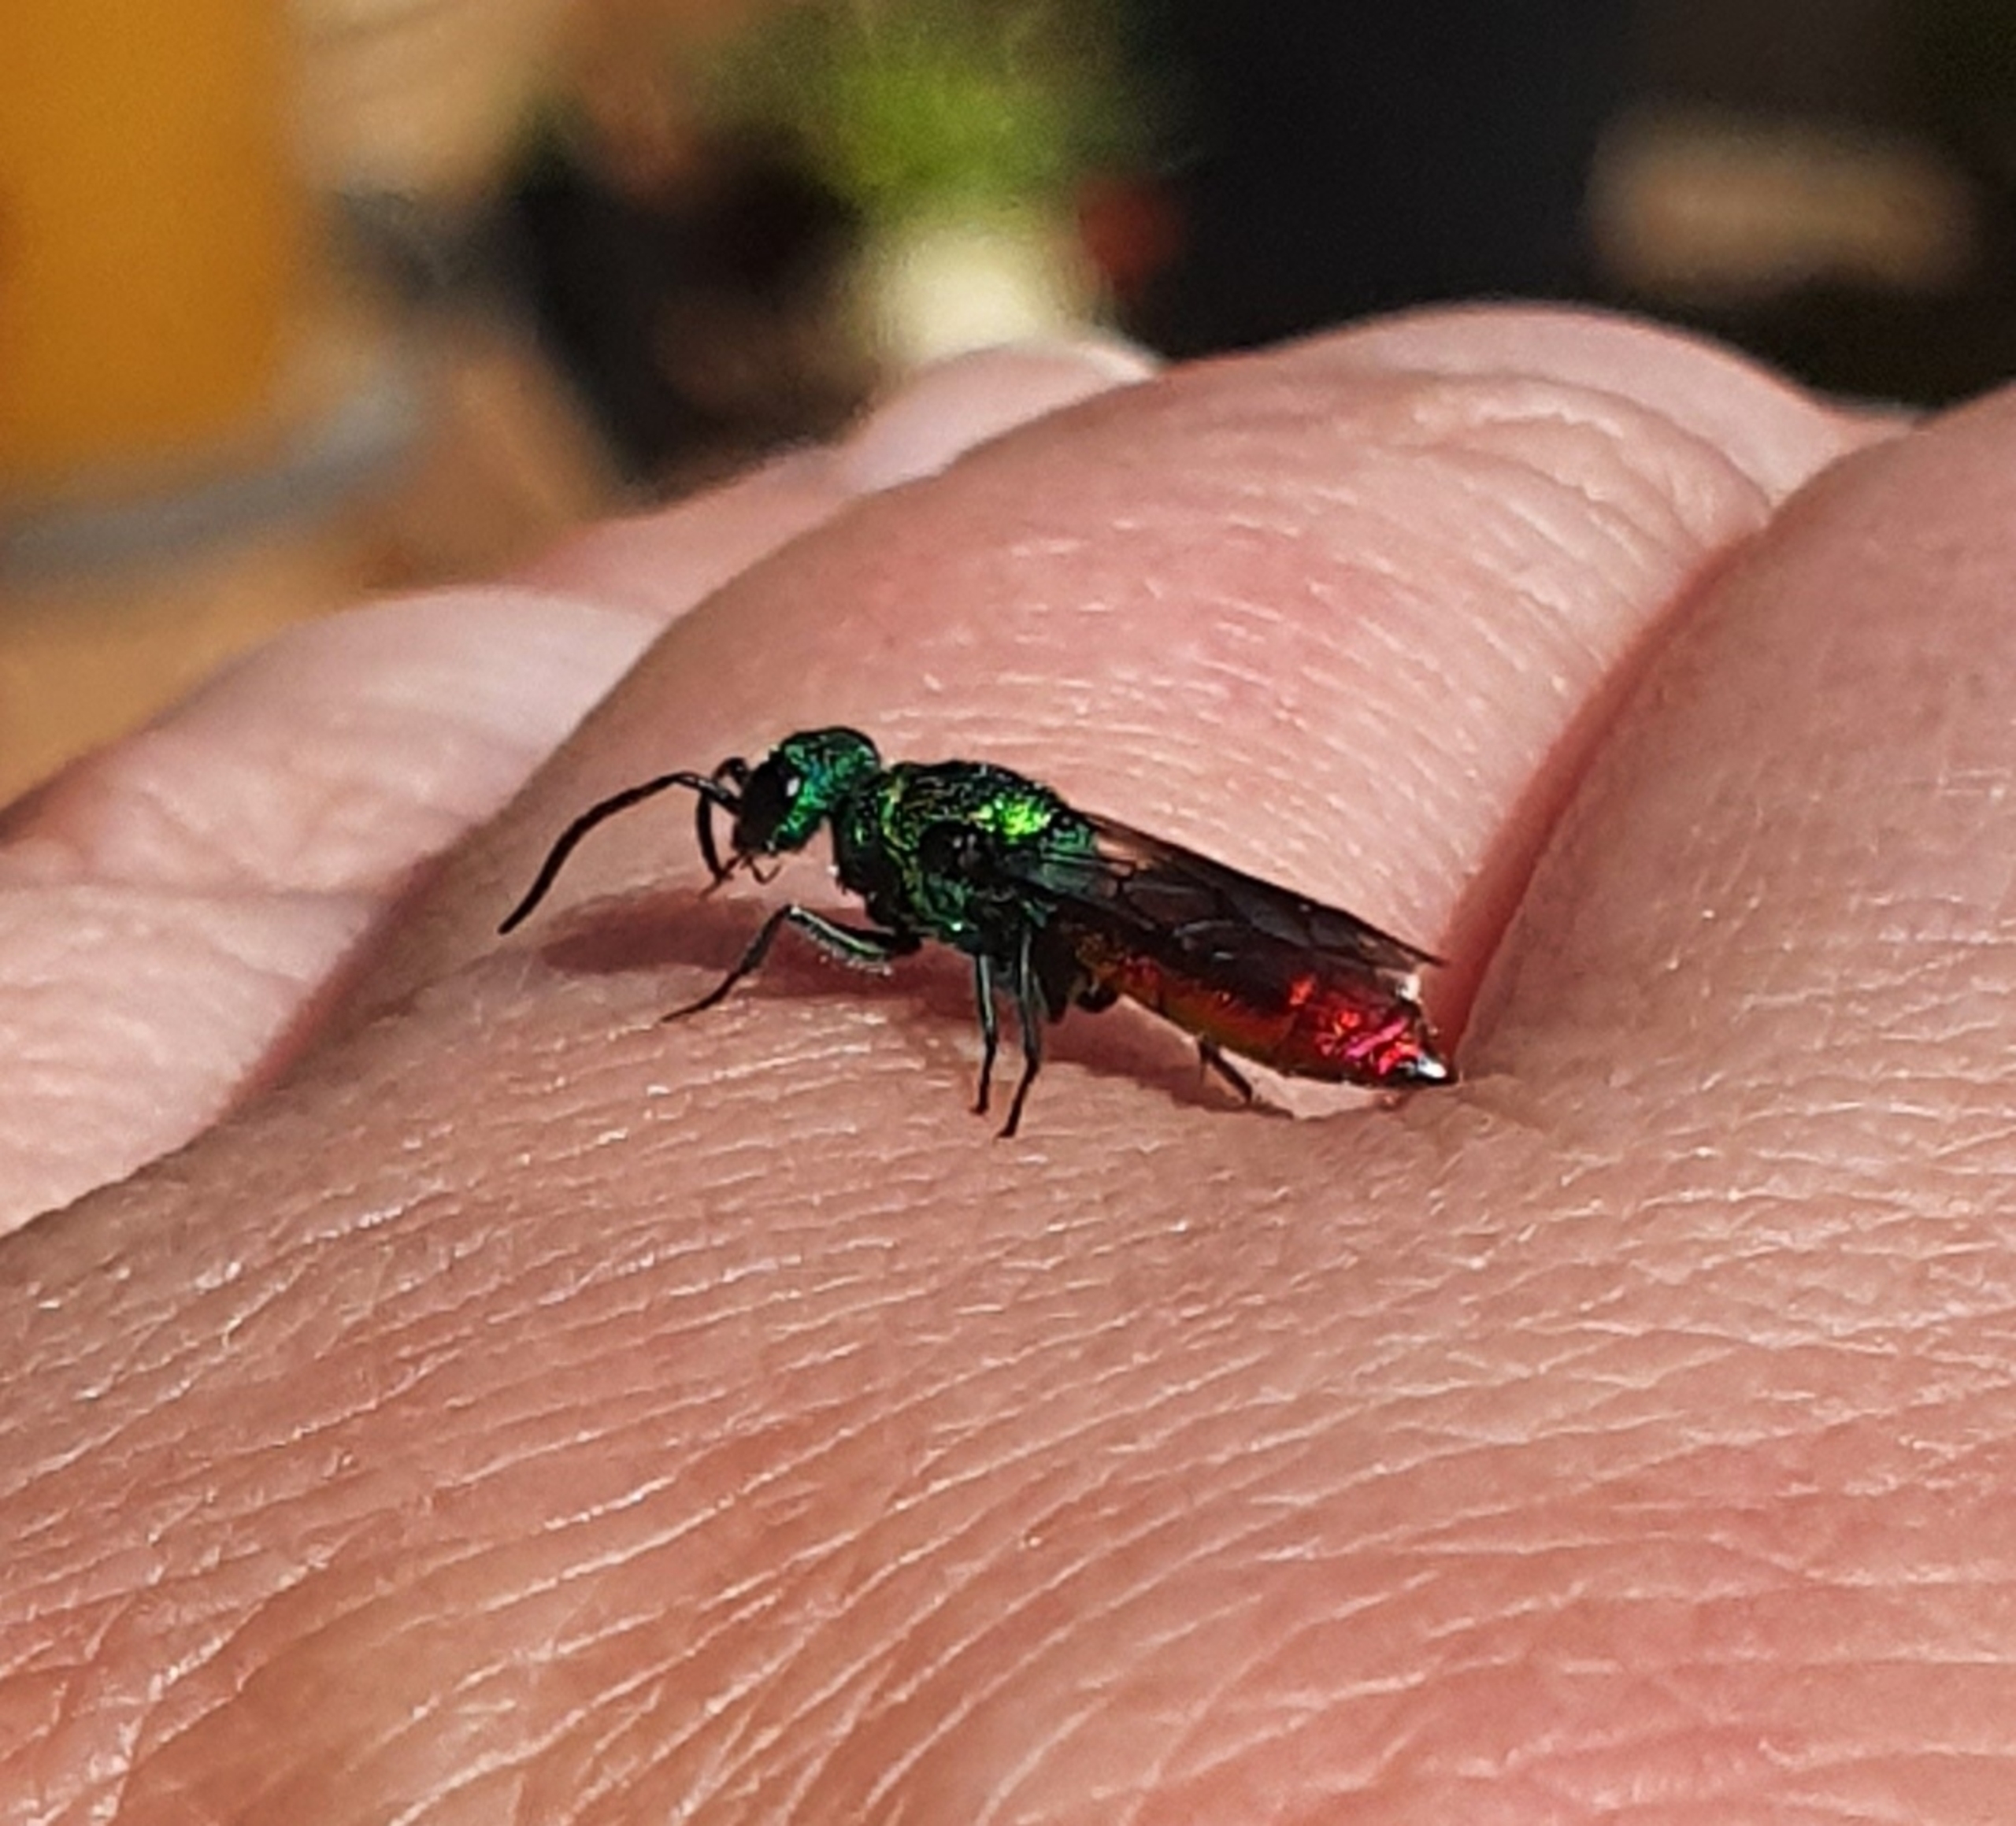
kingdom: Animalia
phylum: Arthropoda
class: Insecta
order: Hymenoptera
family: Chrysididae
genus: Chrysis
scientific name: Chrysis
